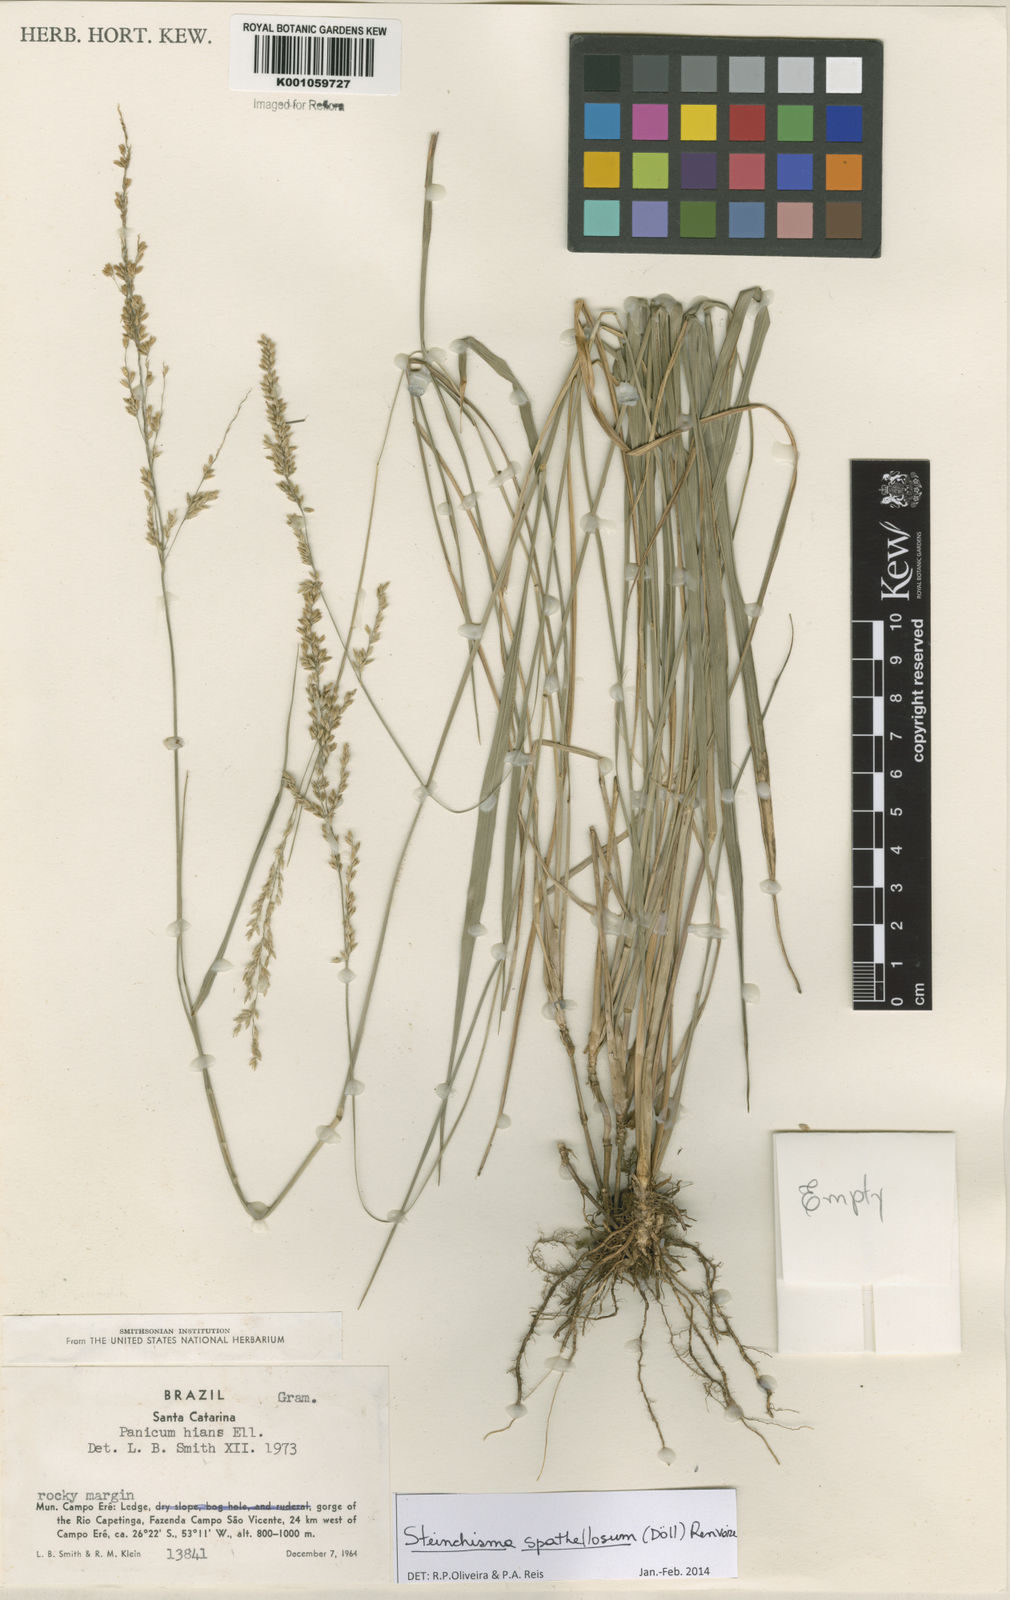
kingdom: Plantae
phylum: Tracheophyta
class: Liliopsida
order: Poales
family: Poaceae
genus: Steinchisma
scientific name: Steinchisma
